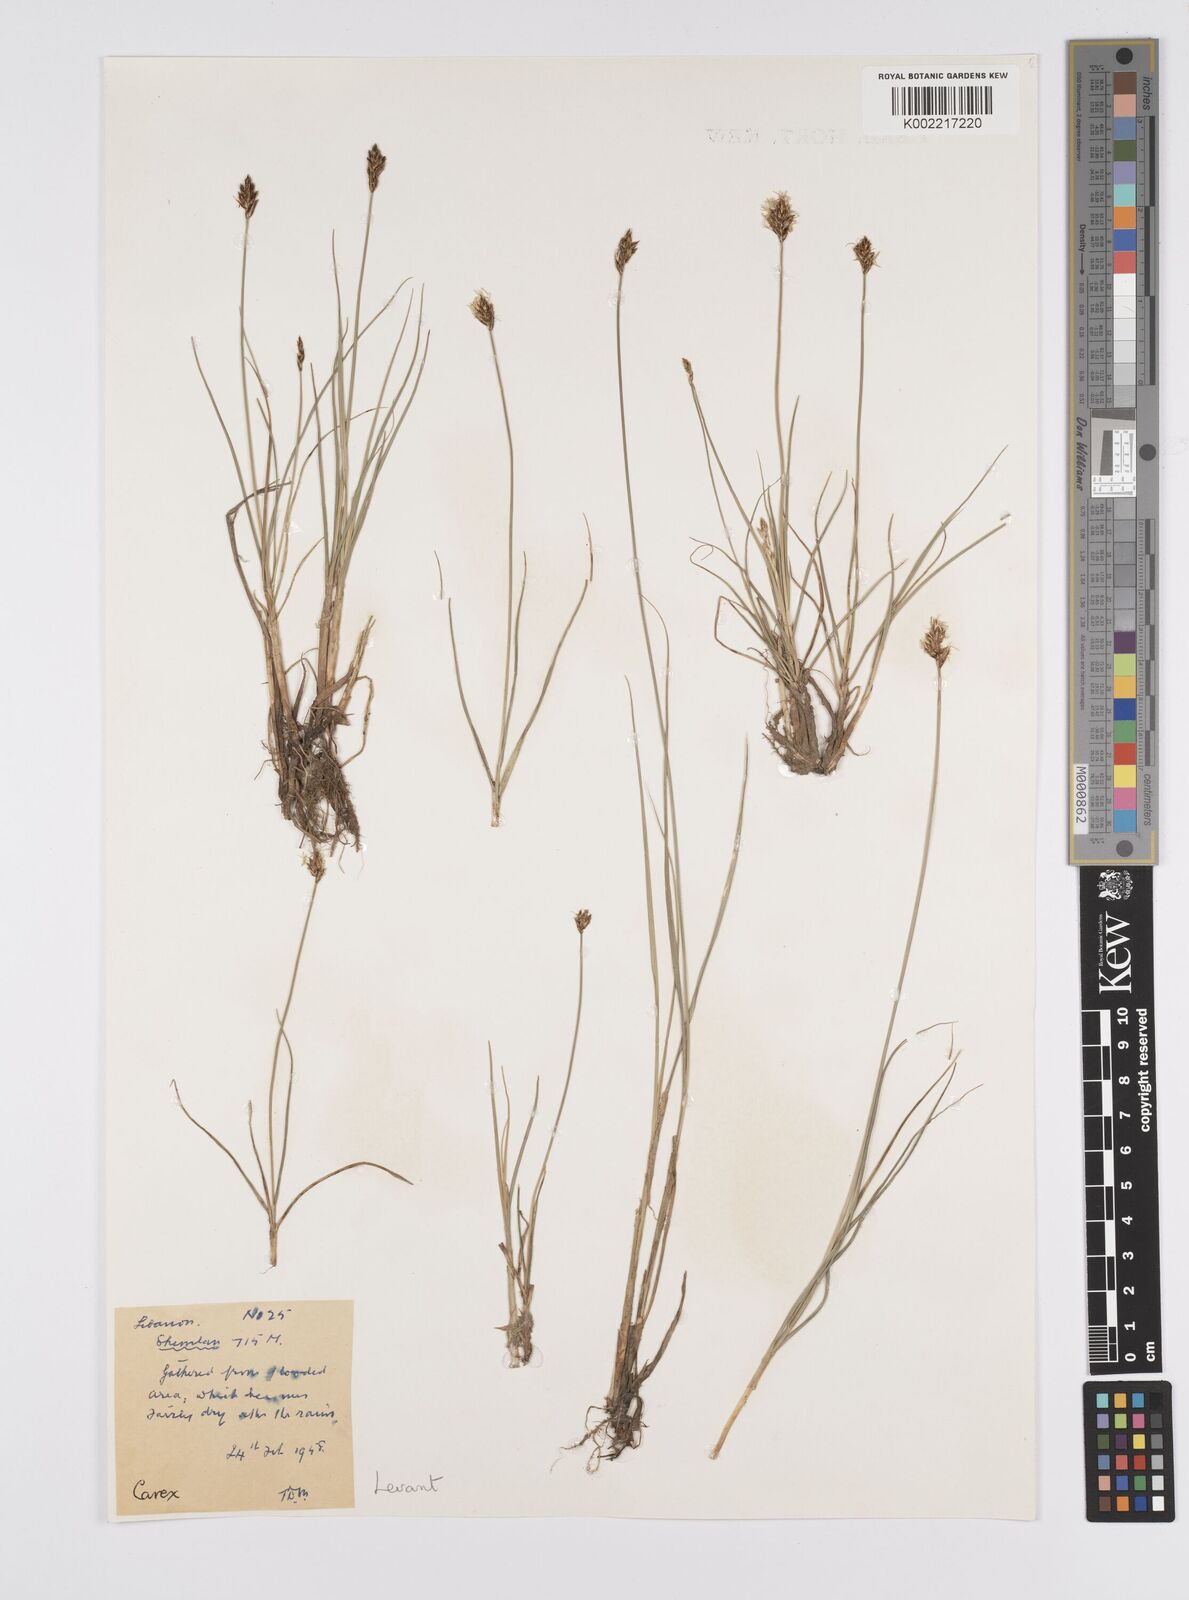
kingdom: Plantae
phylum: Tracheophyta
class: Liliopsida
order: Poales
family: Cyperaceae
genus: Carex
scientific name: Carex
